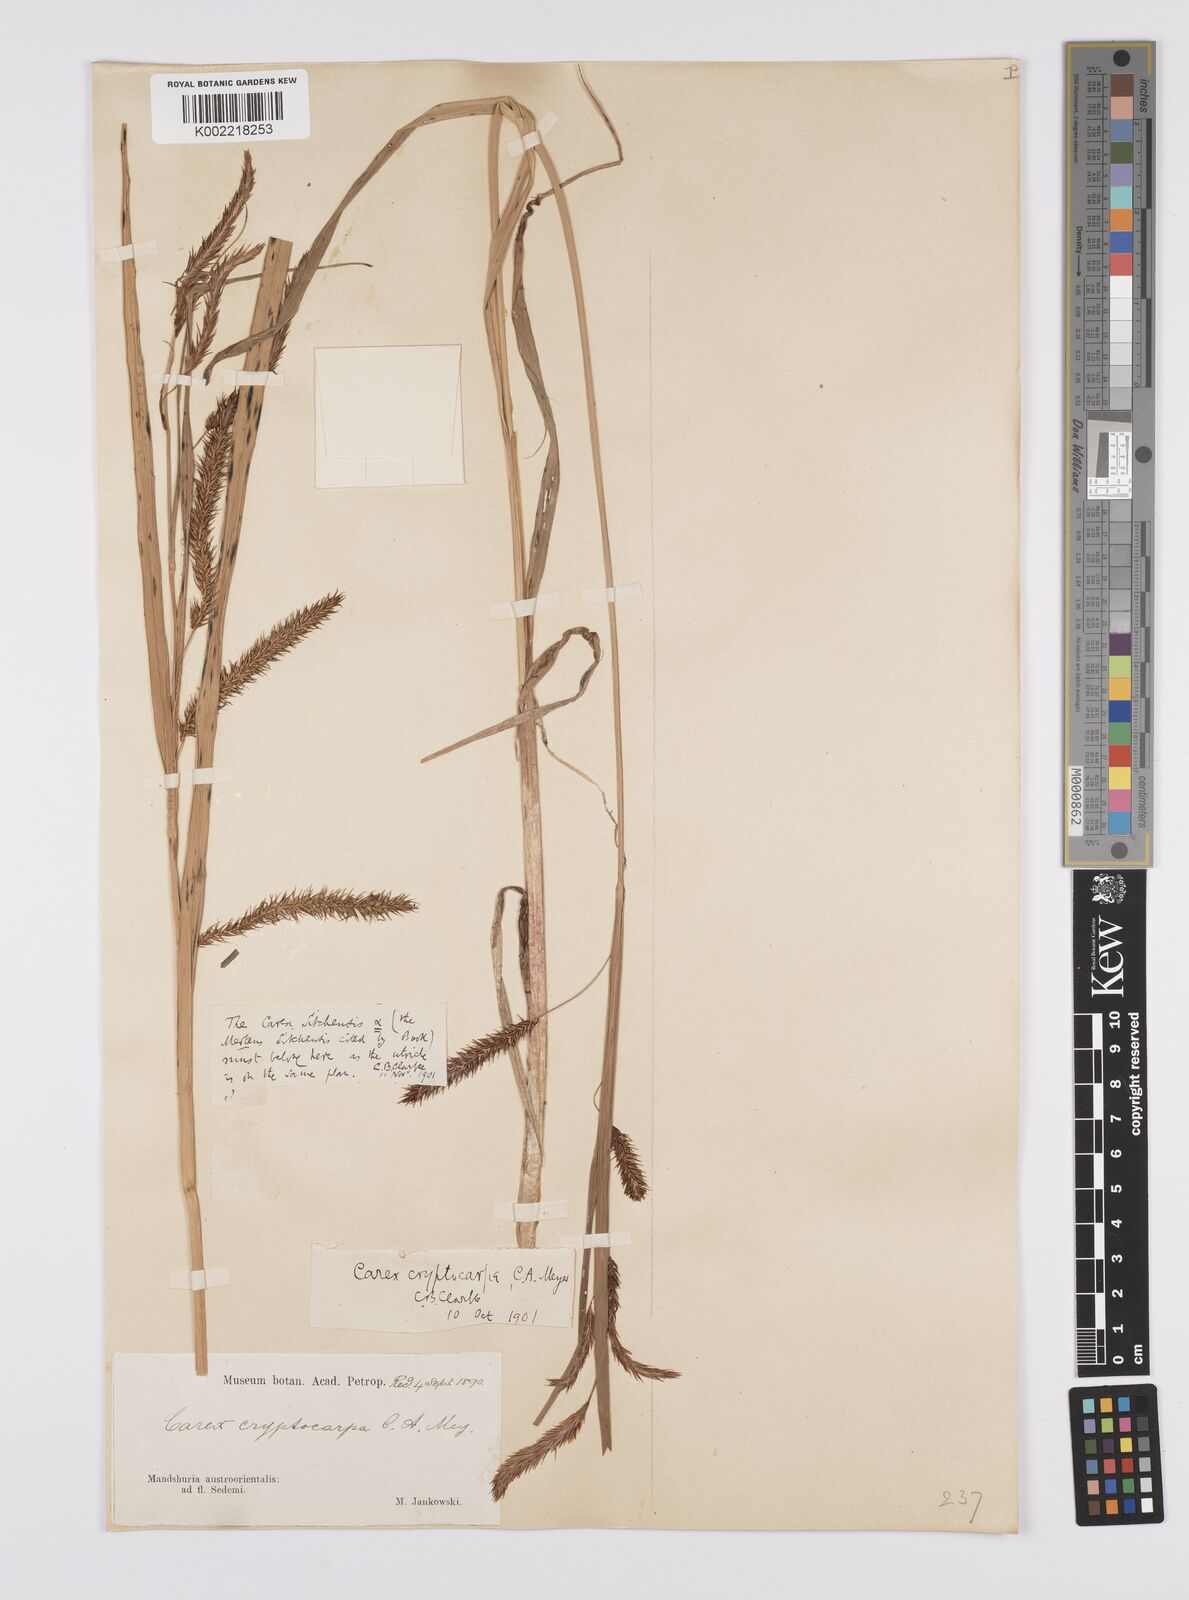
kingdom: Plantae
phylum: Tracheophyta
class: Liliopsida
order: Poales
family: Cyperaceae
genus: Carex
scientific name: Carex lyngbyei
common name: Lyngbye's sedge
